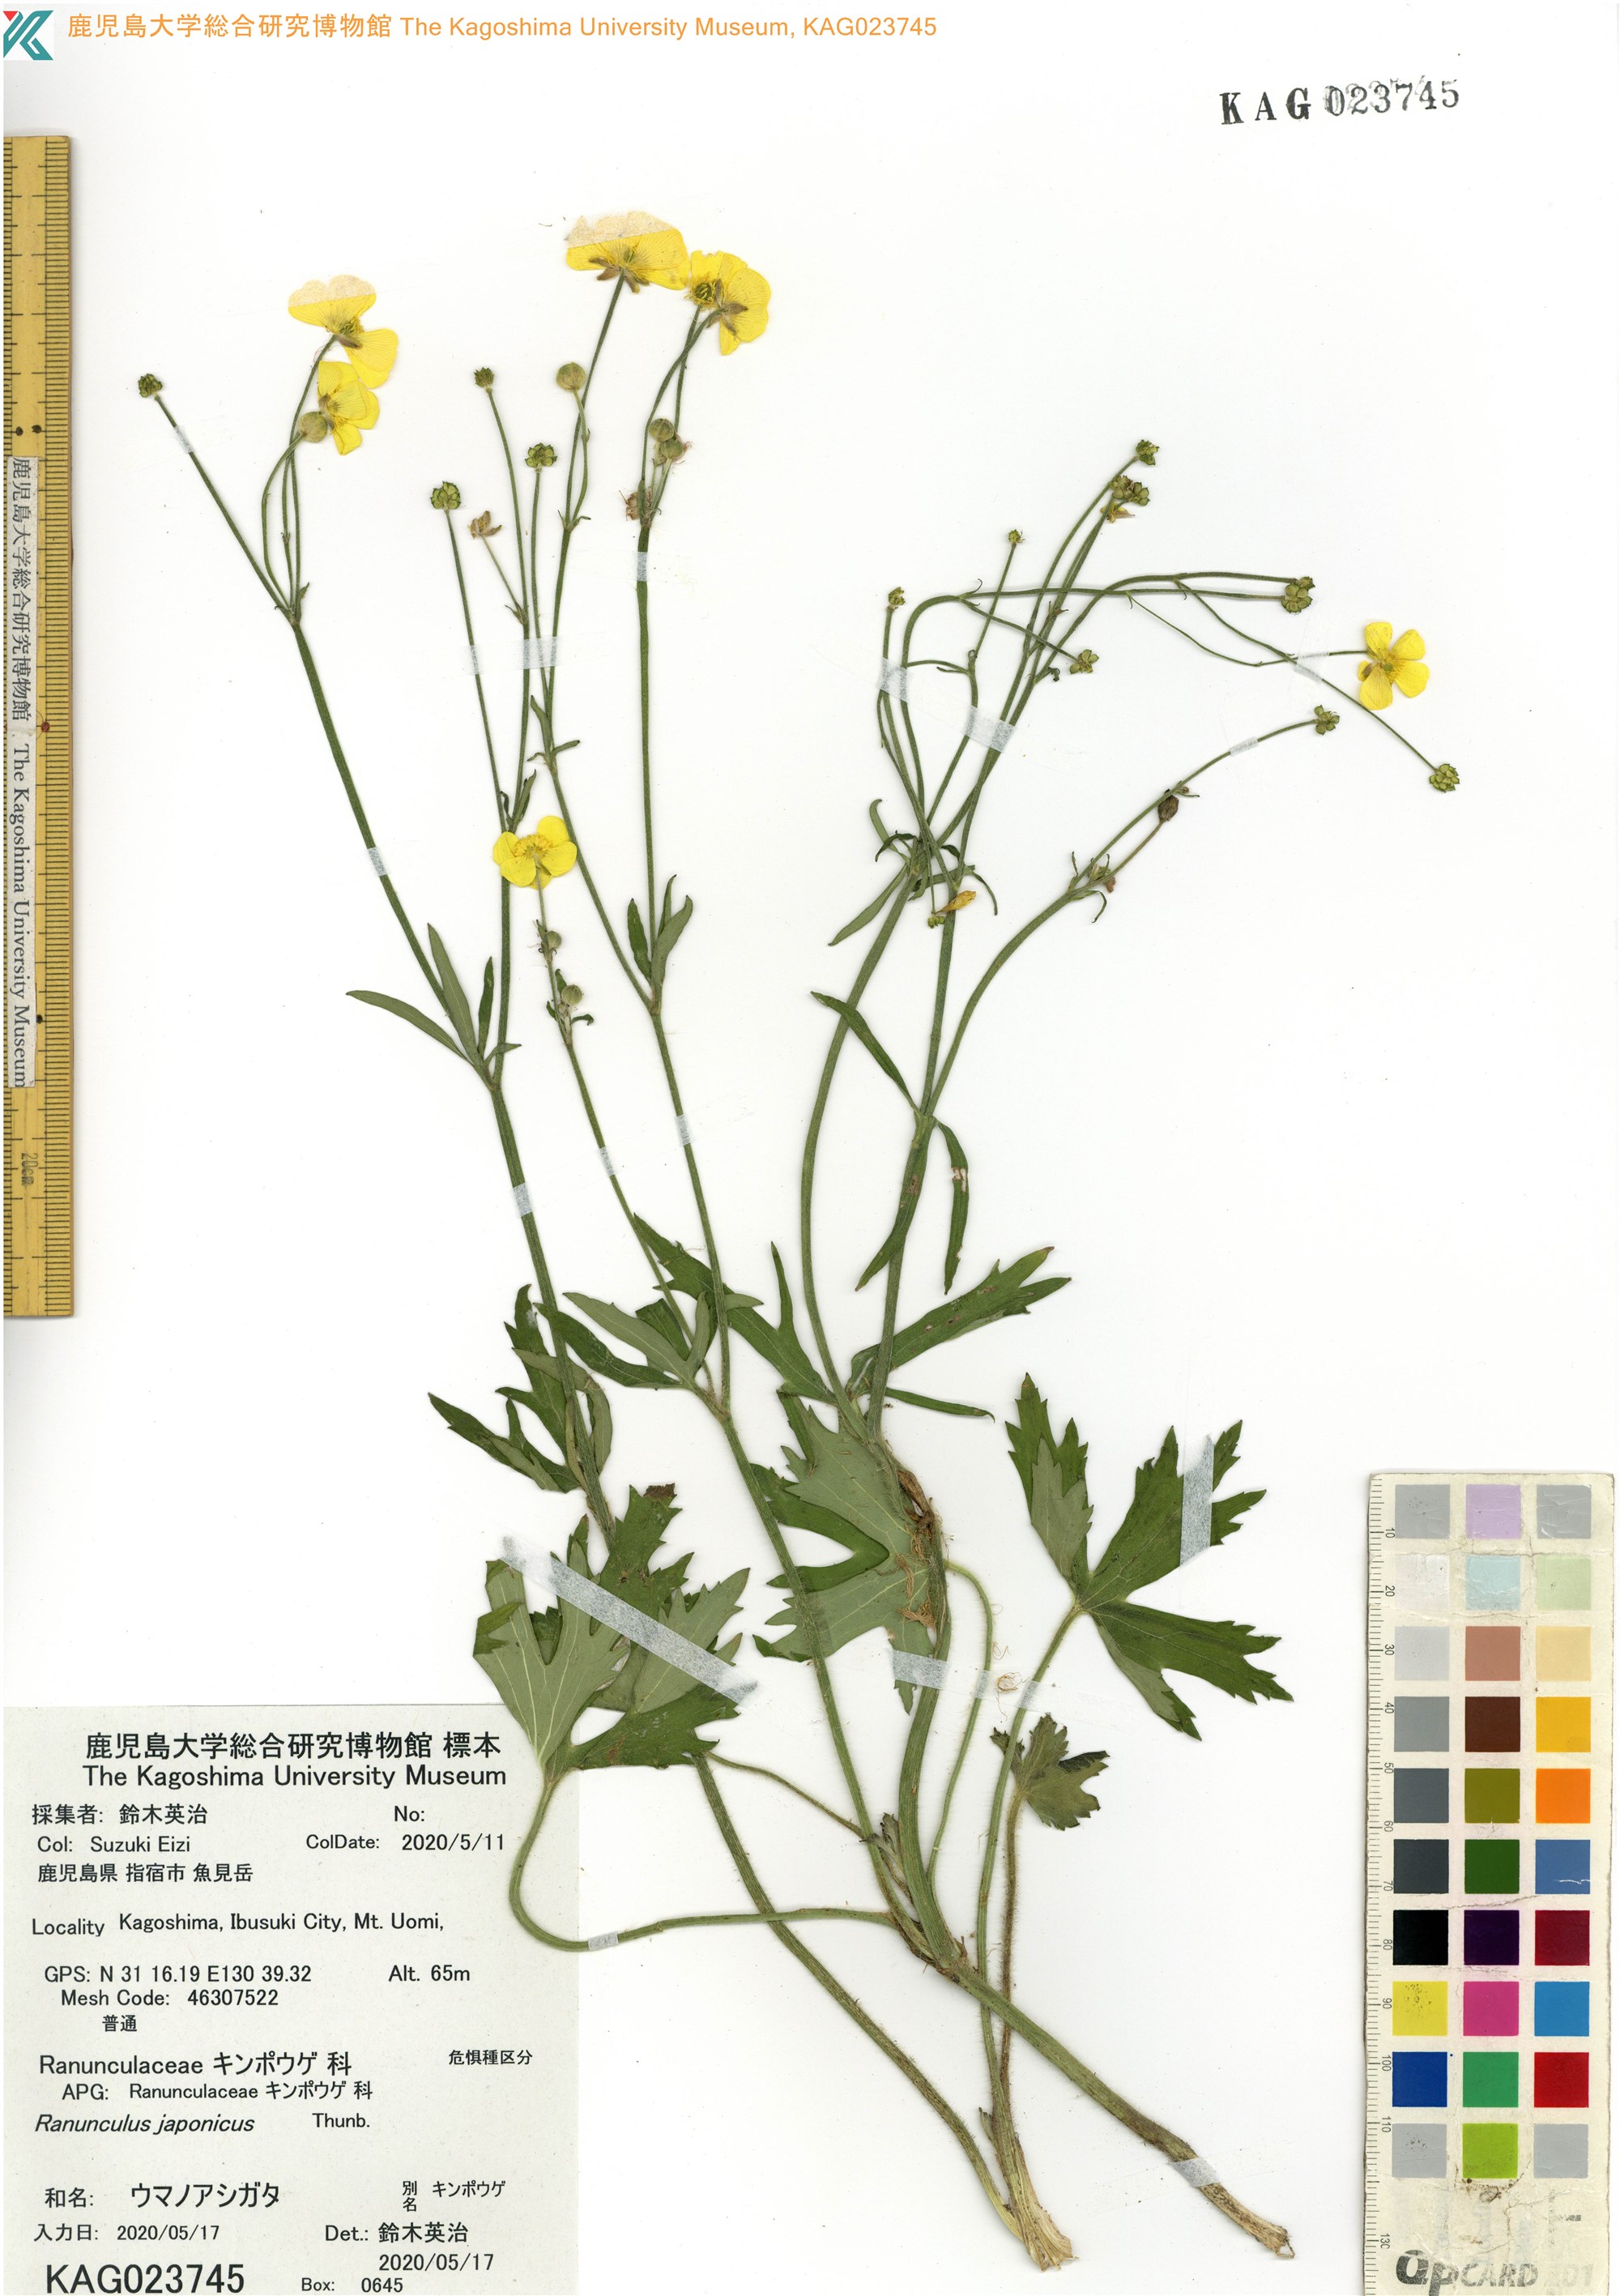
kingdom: Plantae
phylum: Tracheophyta
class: Magnoliopsida
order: Ranunculales
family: Ranunculaceae
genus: Ranunculus
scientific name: Ranunculus japonicus
